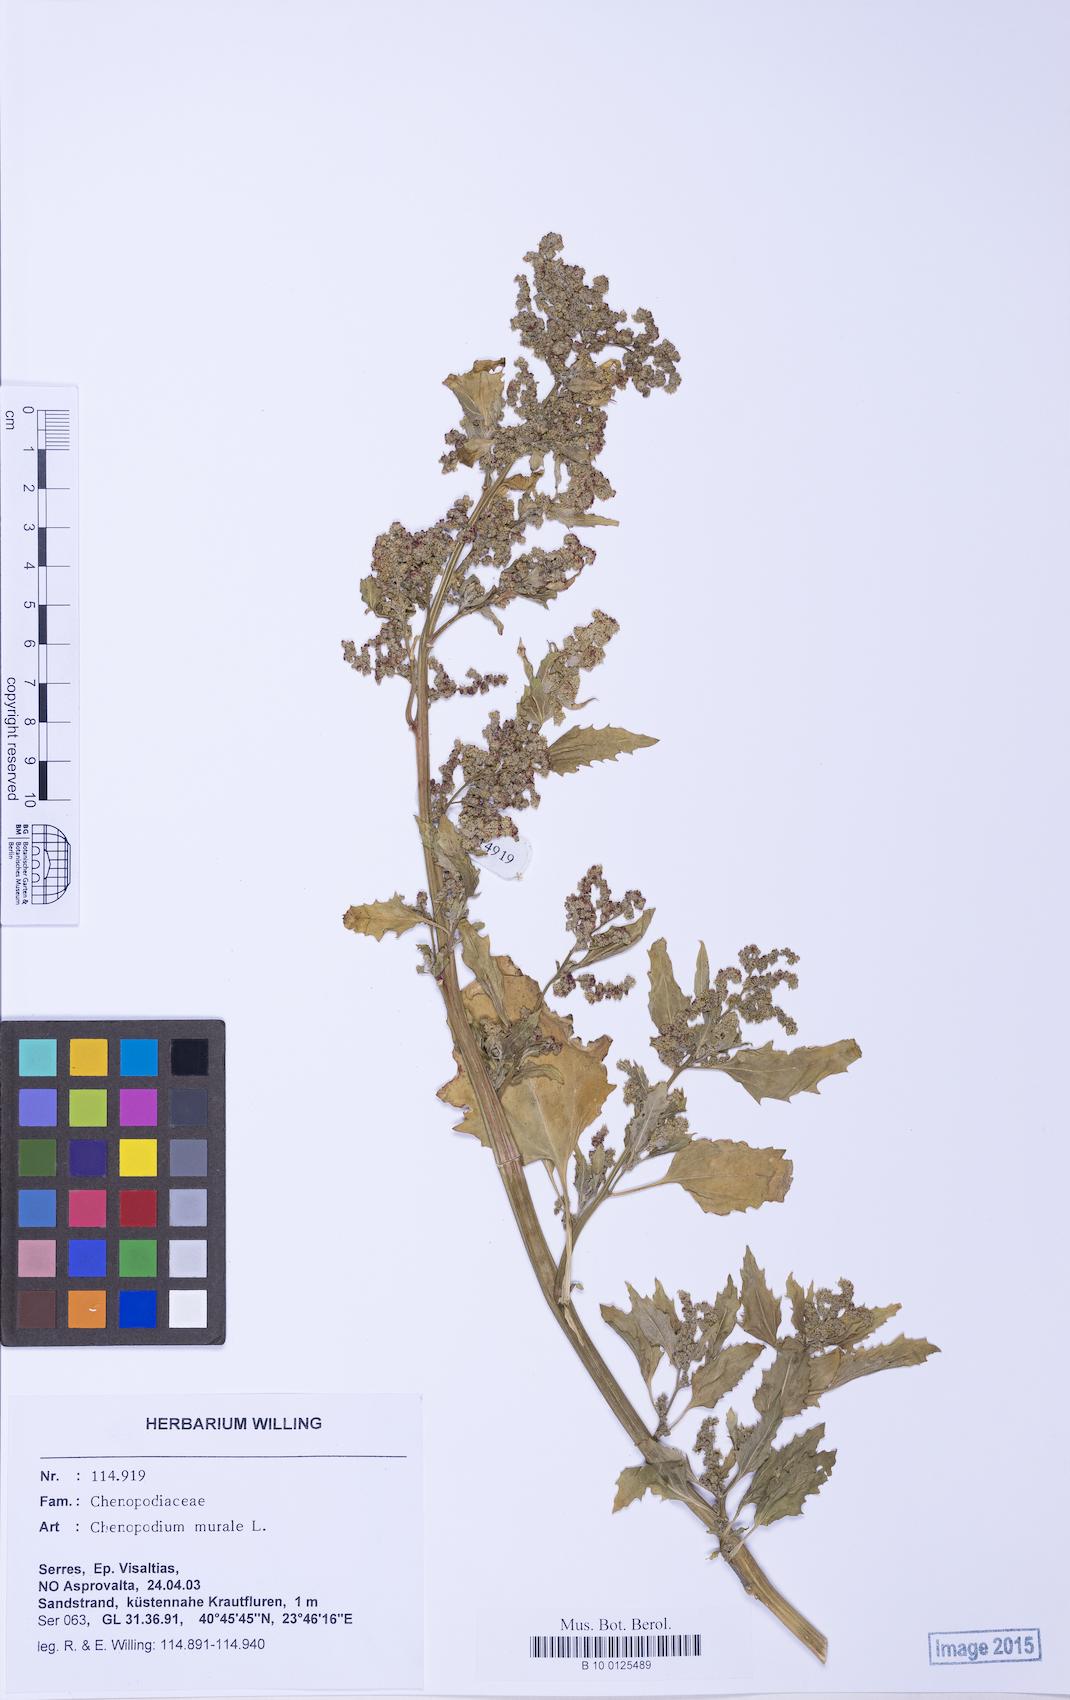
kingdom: Plantae
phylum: Tracheophyta
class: Magnoliopsida
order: Caryophyllales
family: Amaranthaceae
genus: Chenopodiastrum
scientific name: Chenopodiastrum murale
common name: Sowbane
